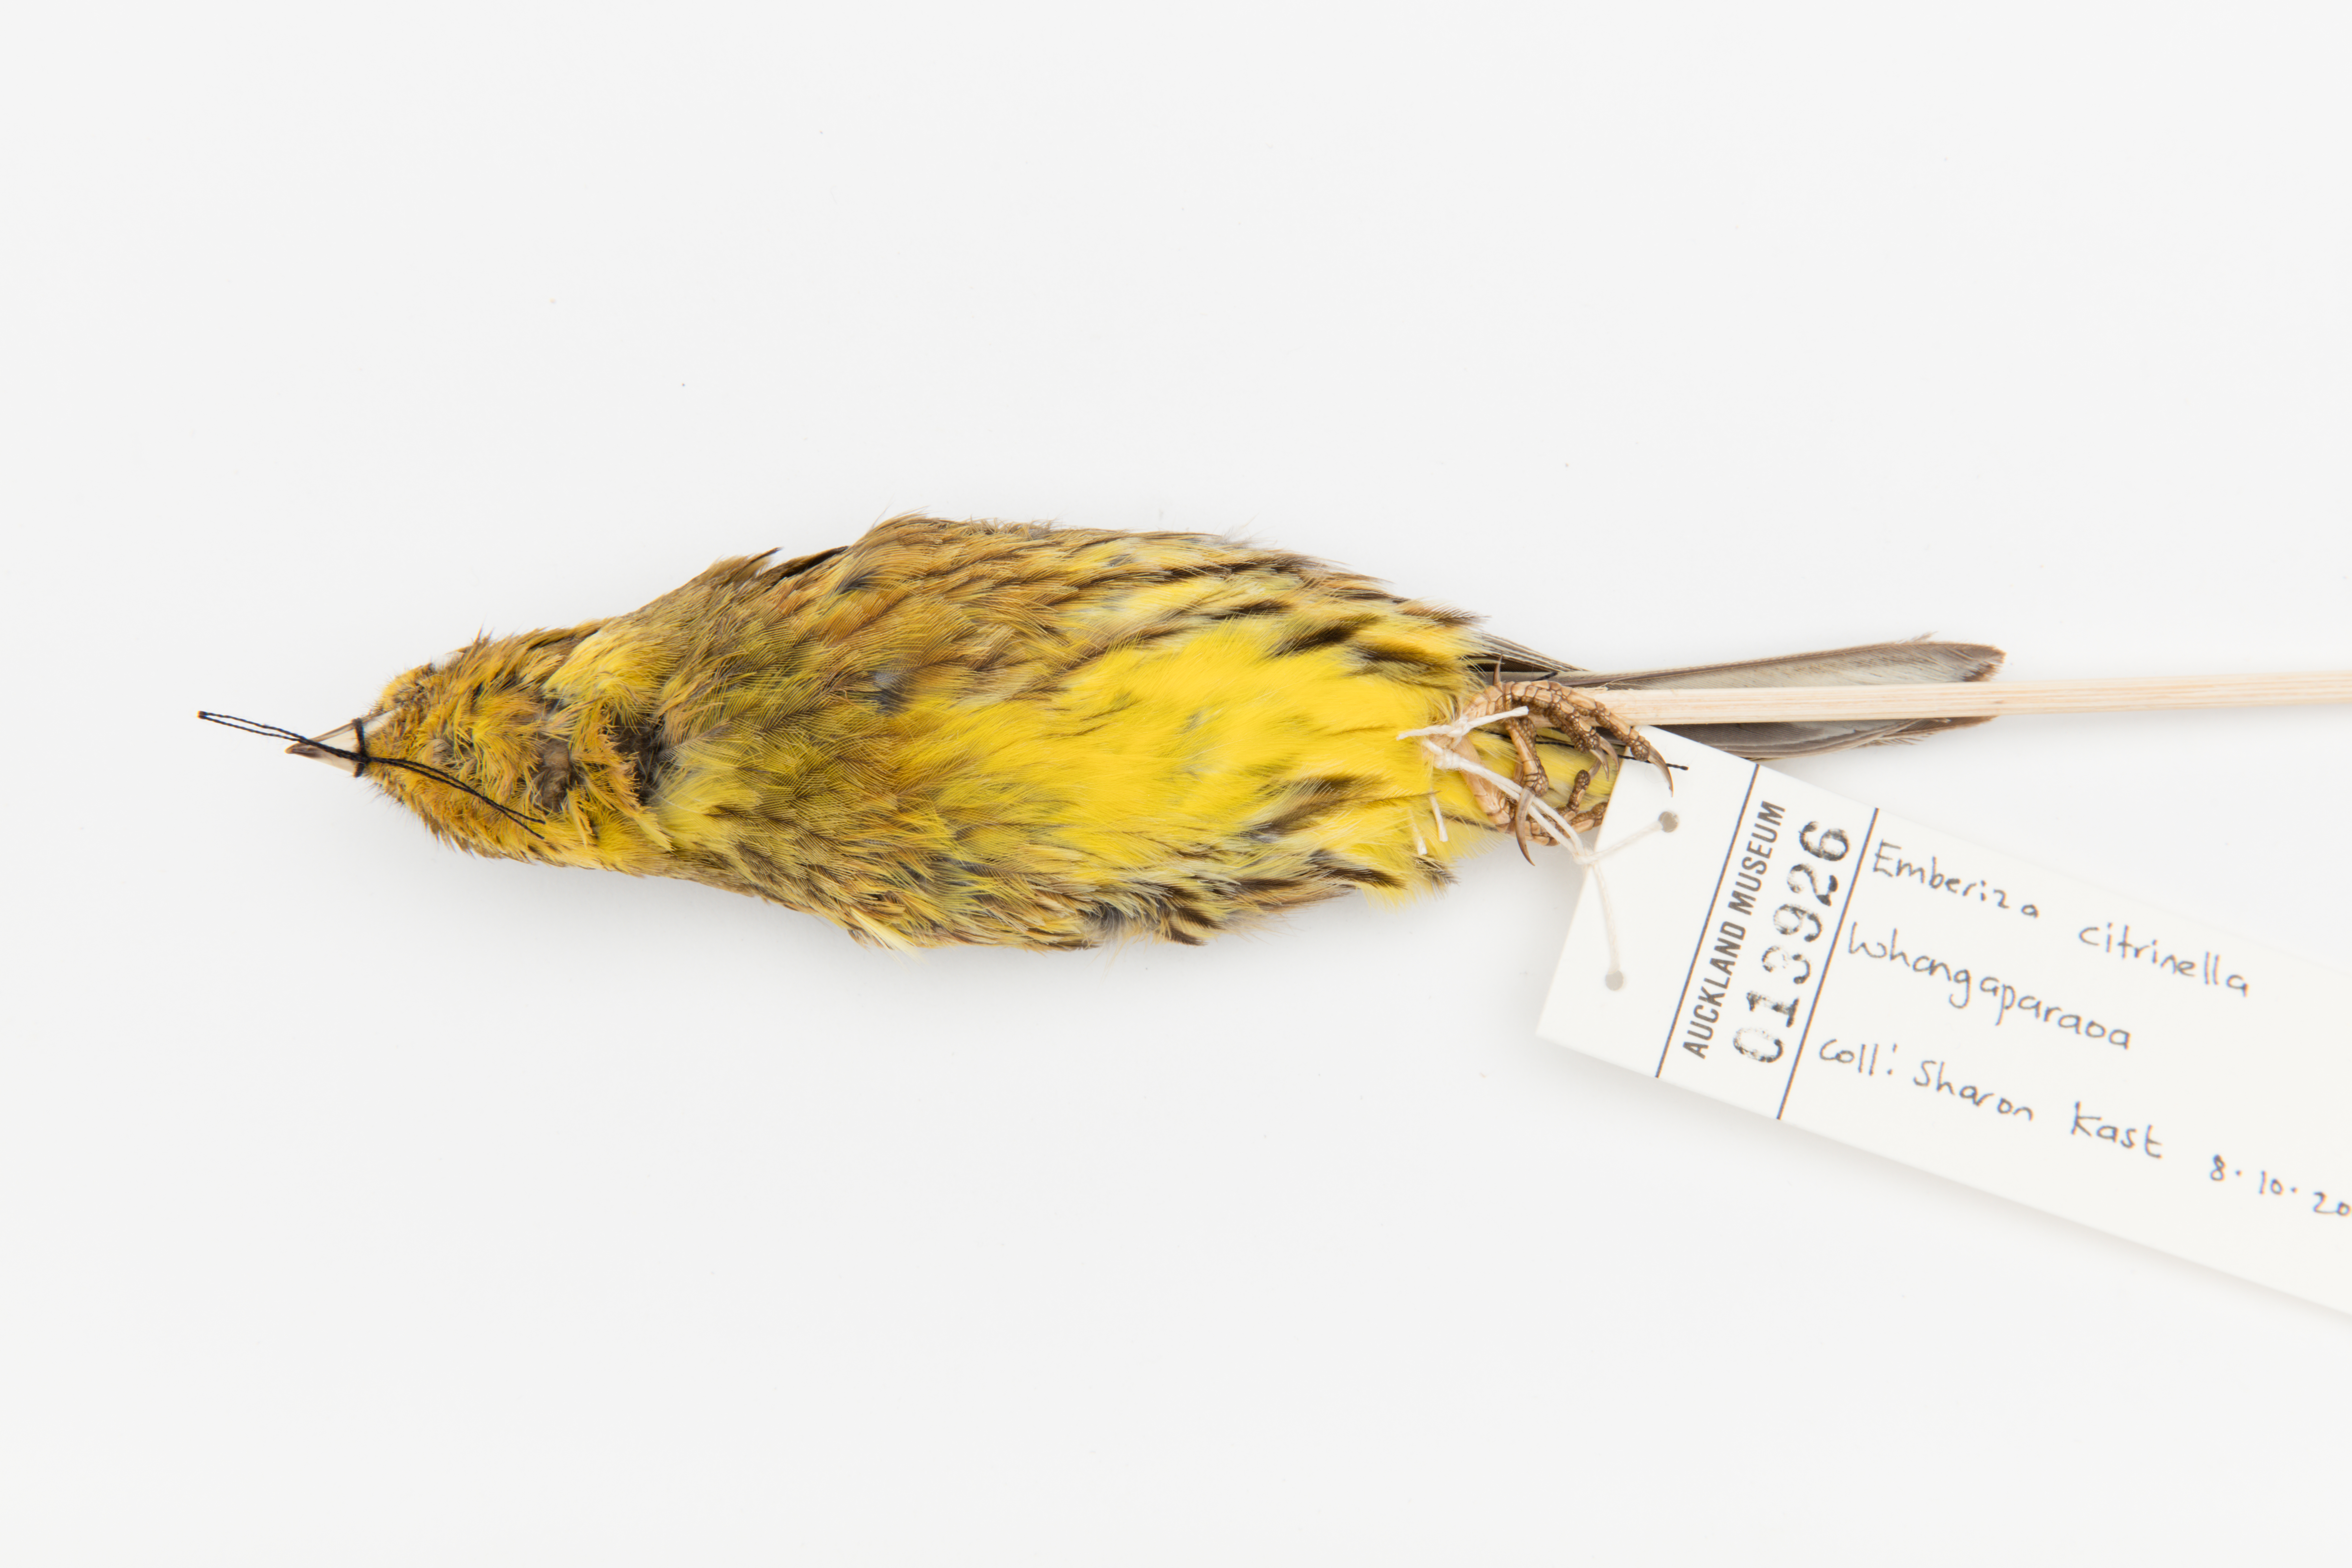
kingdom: Animalia
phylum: Chordata
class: Aves
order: Passeriformes
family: Emberizidae
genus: Emberiza
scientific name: Emberiza citrinella
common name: Yellowhammer
